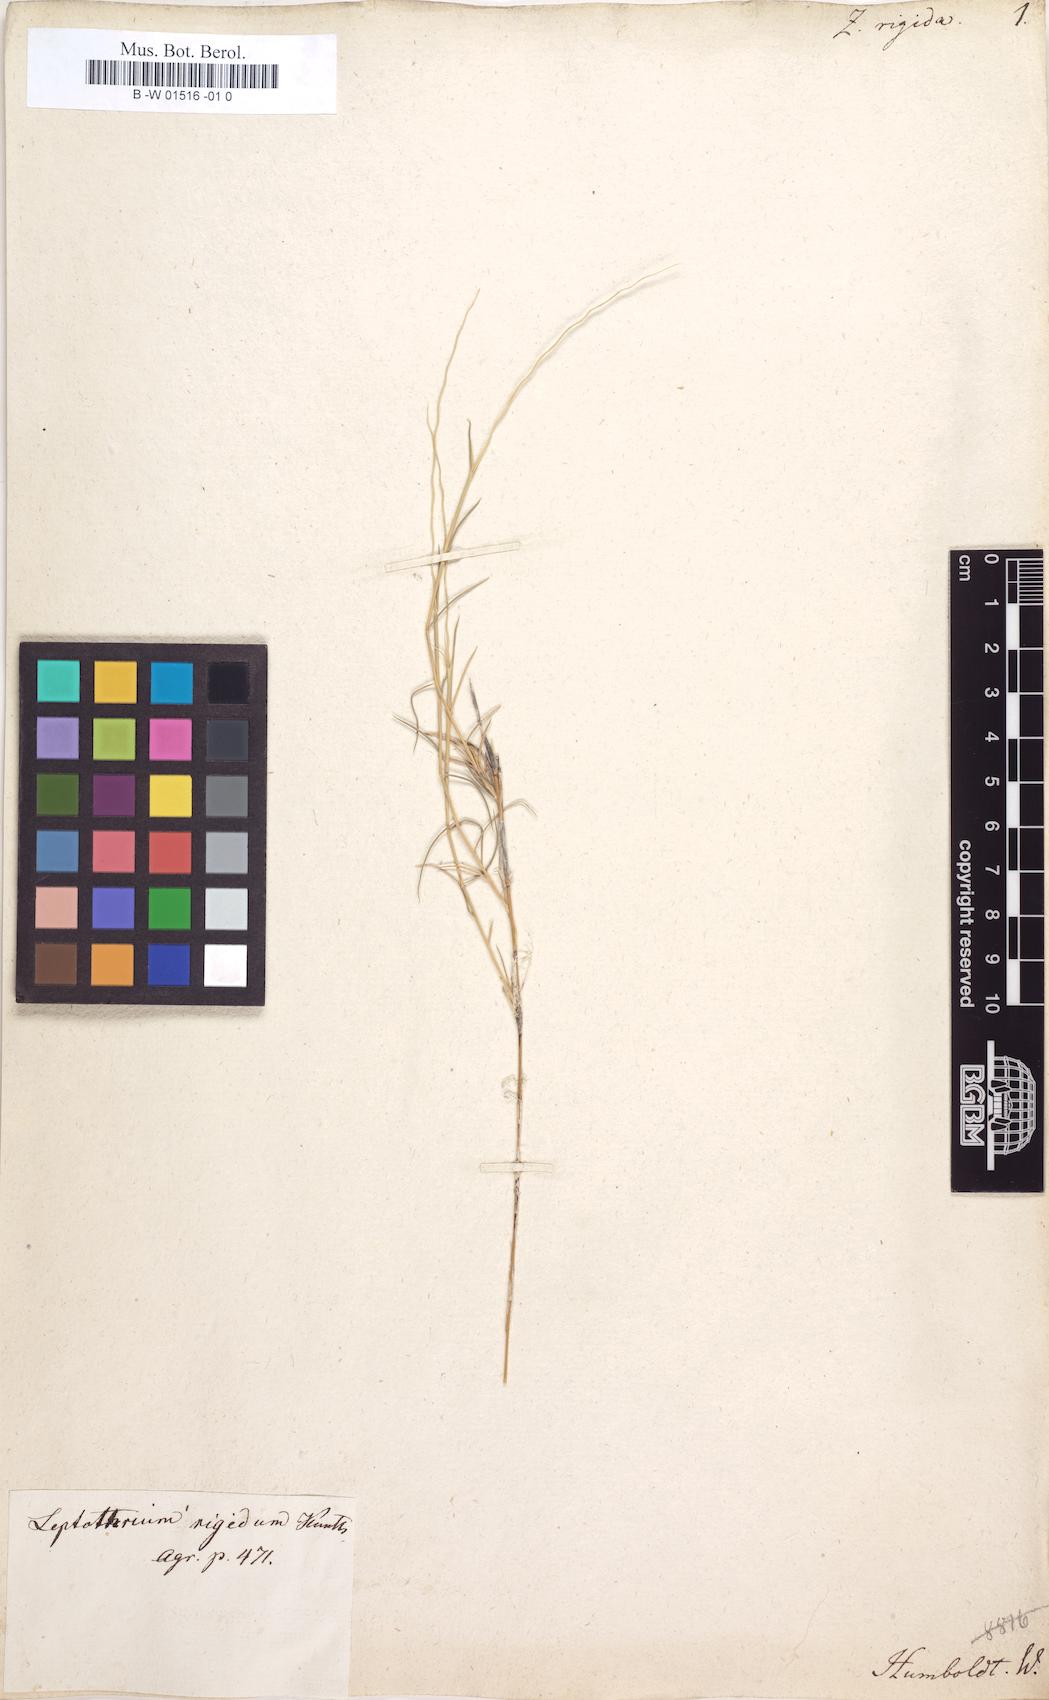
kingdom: Plantae
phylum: Tracheophyta
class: Liliopsida
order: Poales
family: Poaceae
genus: Leptothrium
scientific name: Leptothrium rigidum
